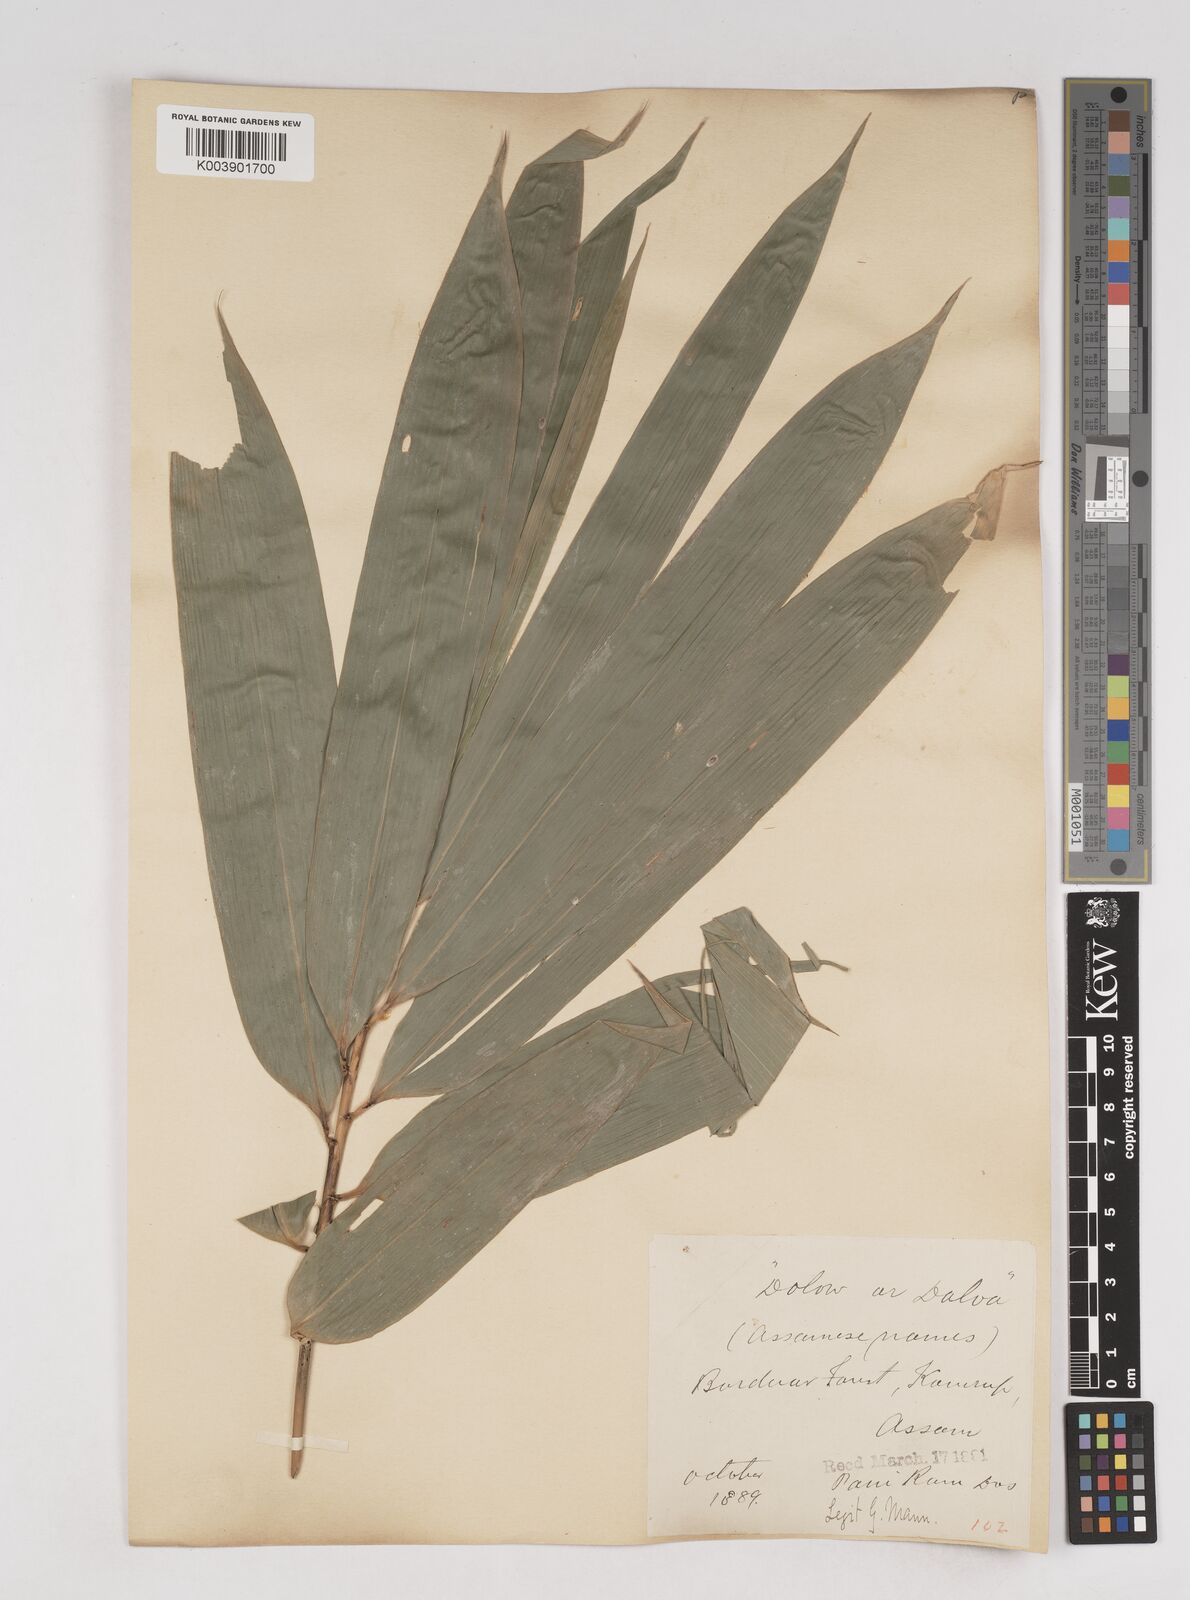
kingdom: Plantae
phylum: Tracheophyta
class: Liliopsida
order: Poales
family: Poaceae
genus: Schizostachyum
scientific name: Schizostachyum dullooa
